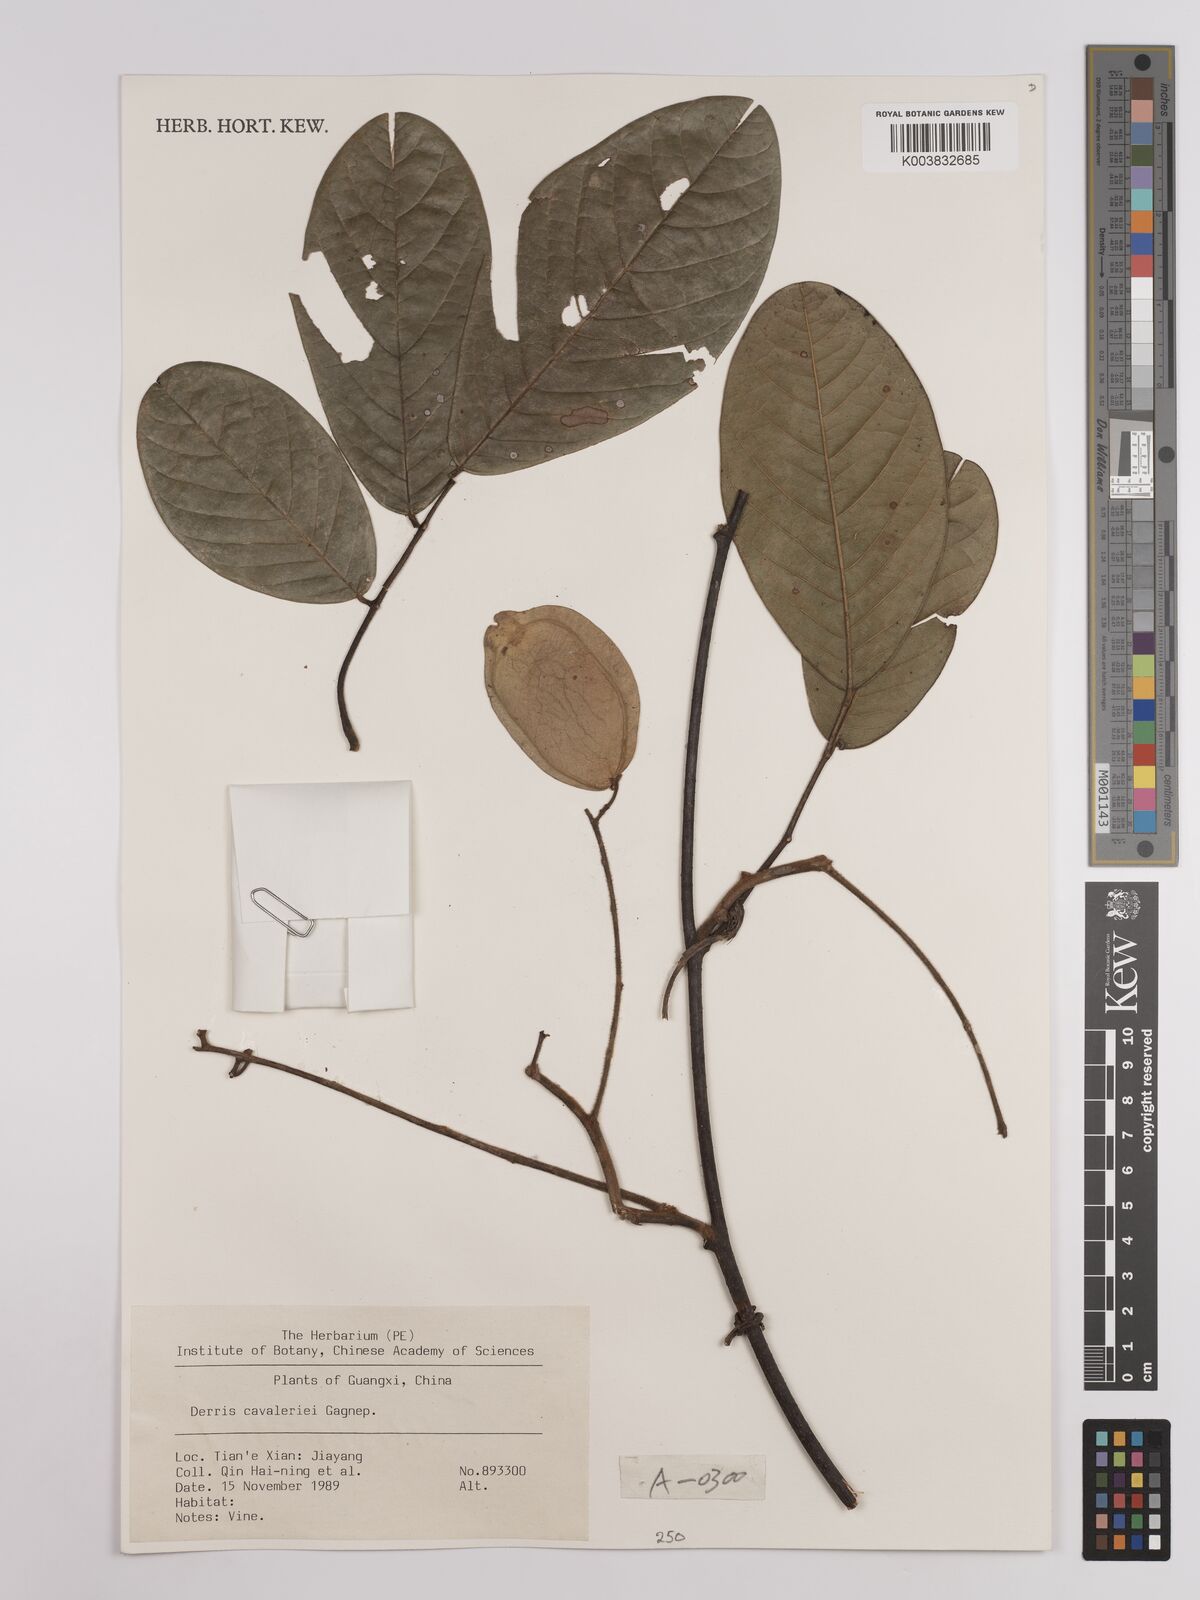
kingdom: Plantae
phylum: Tracheophyta
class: Magnoliopsida
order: Fabales
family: Fabaceae
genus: Derris
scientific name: Derris cavaleriei
